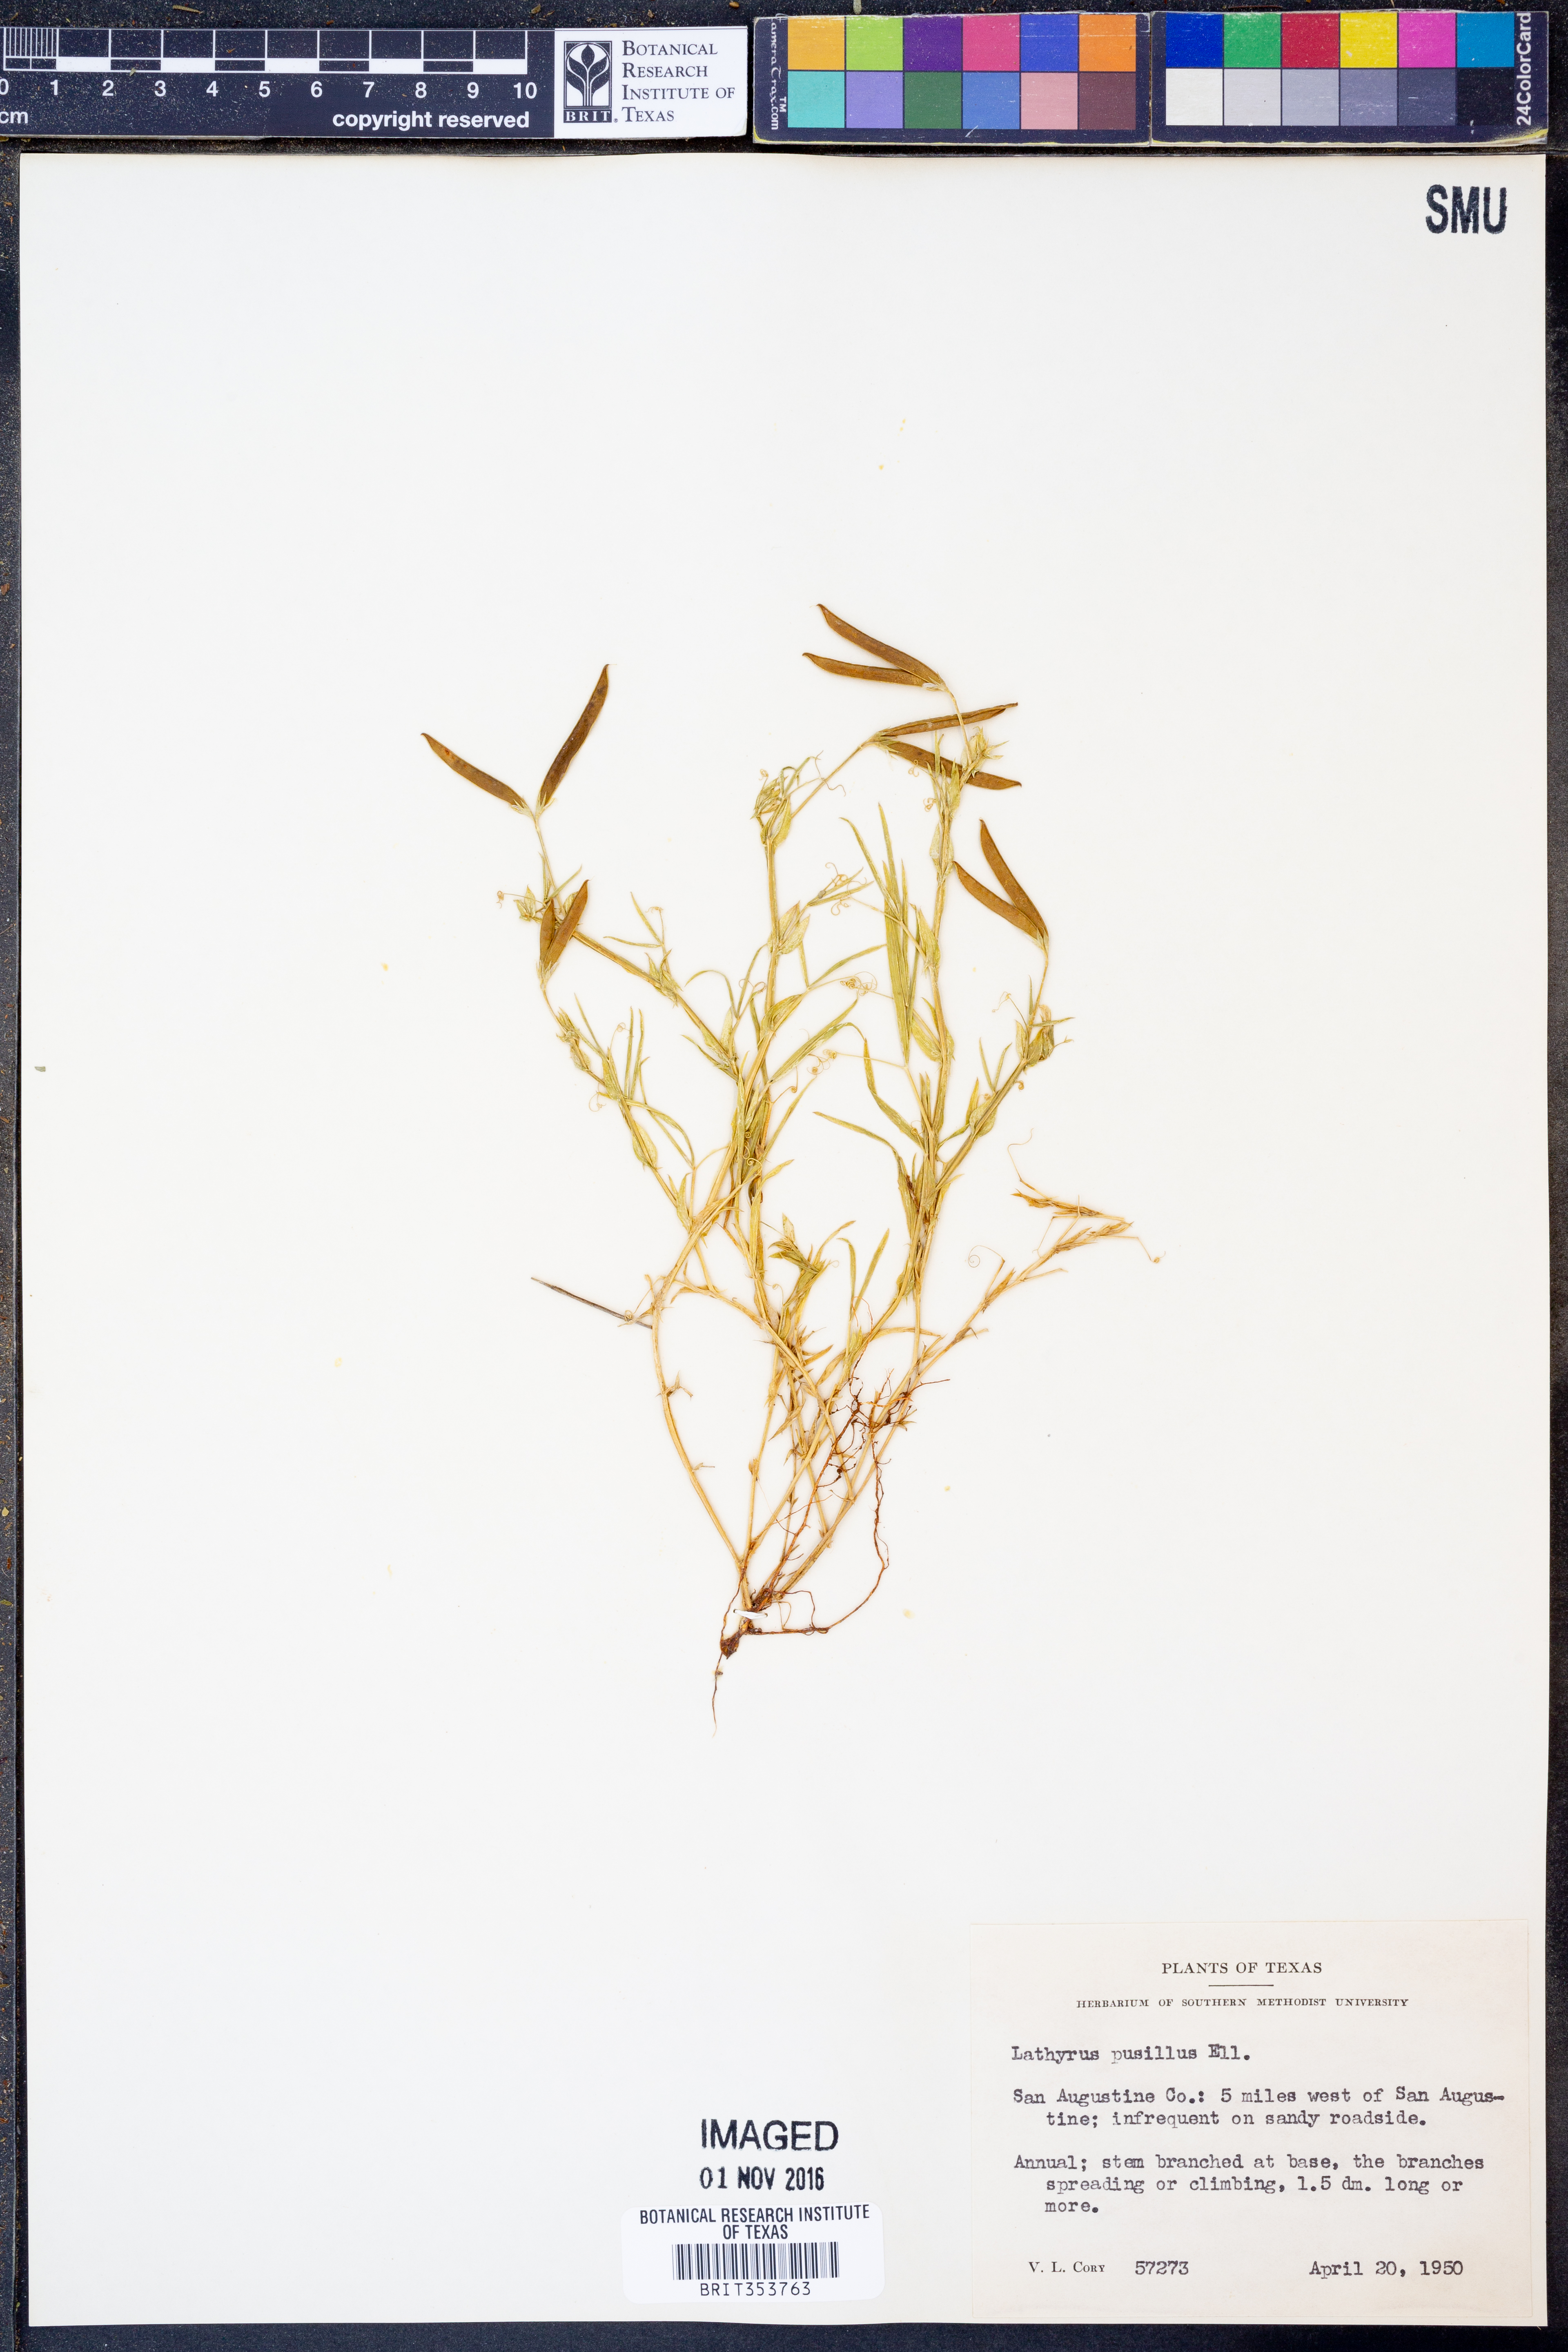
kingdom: Plantae
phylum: Tracheophyta
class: Magnoliopsida
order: Fabales
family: Fabaceae
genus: Lathyrus
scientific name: Lathyrus pusillus
